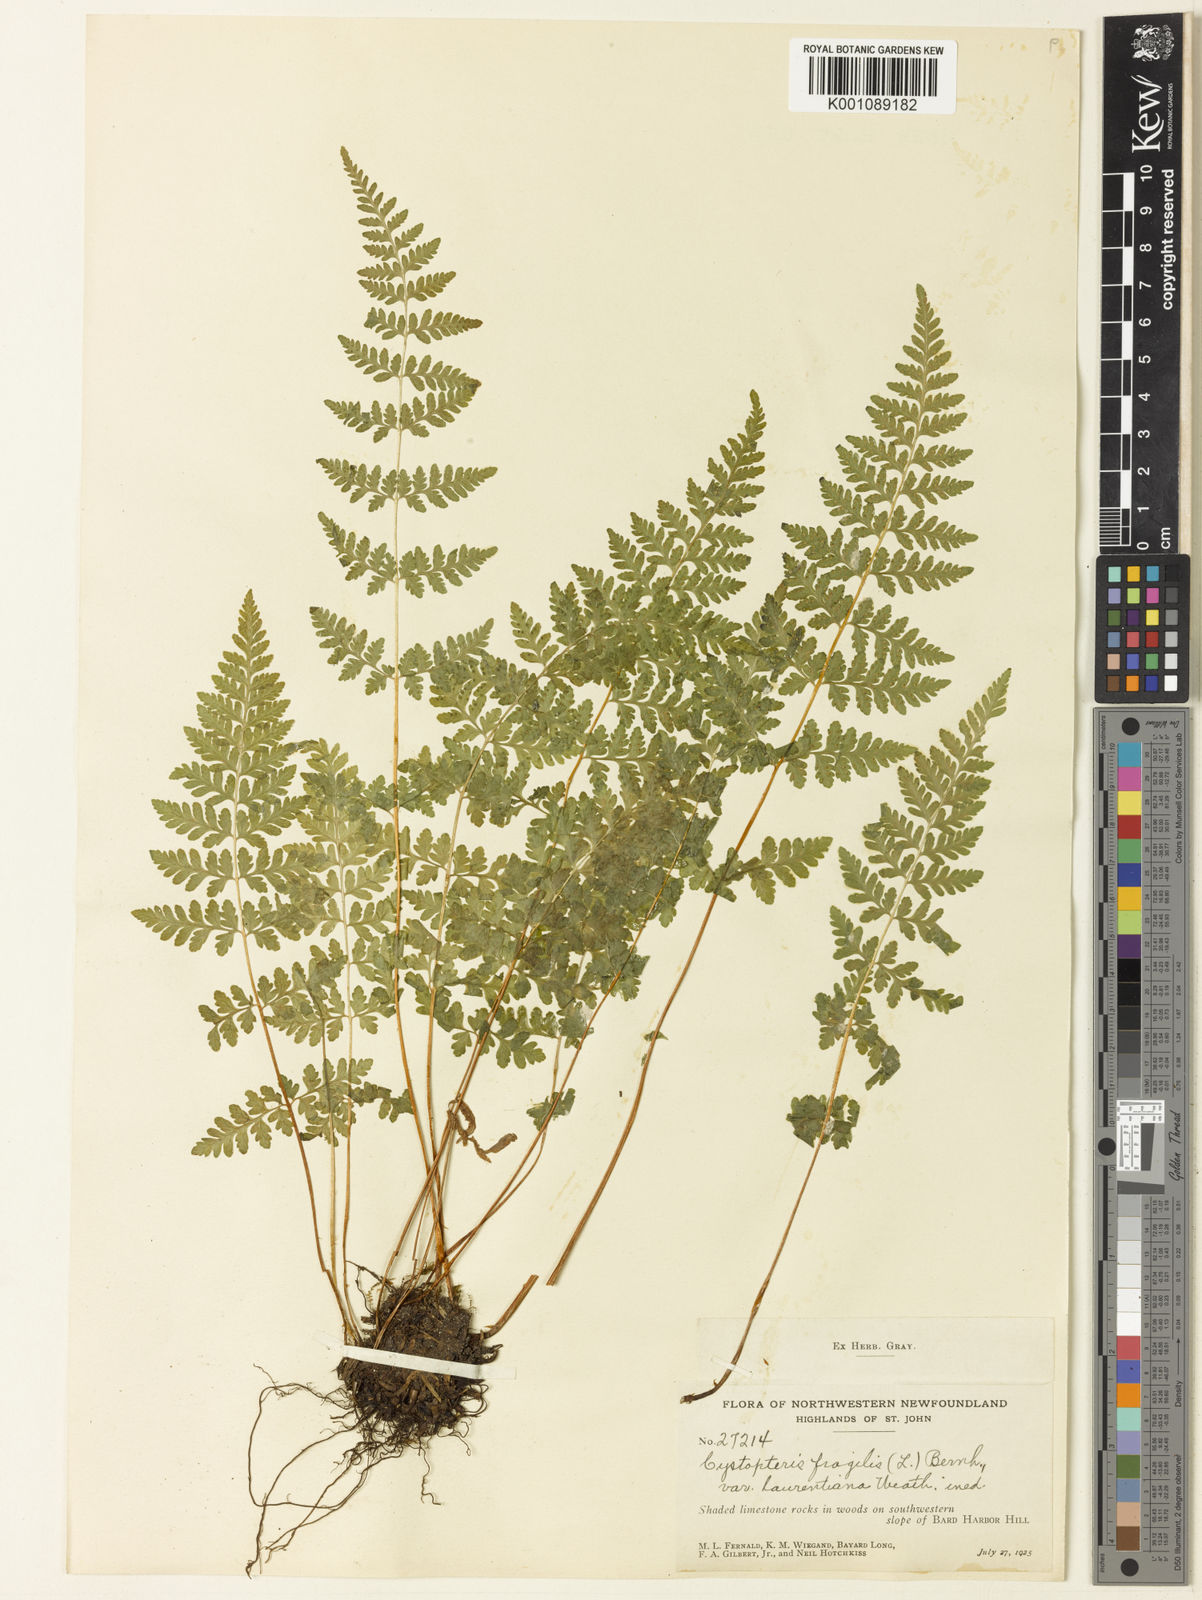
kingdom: Plantae
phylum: Tracheophyta
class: Polypodiopsida
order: Polypodiales
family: Cystopteridaceae
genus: Cystopteris
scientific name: Cystopteris laurentiana
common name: Blasdell's laurentian bladder fern
